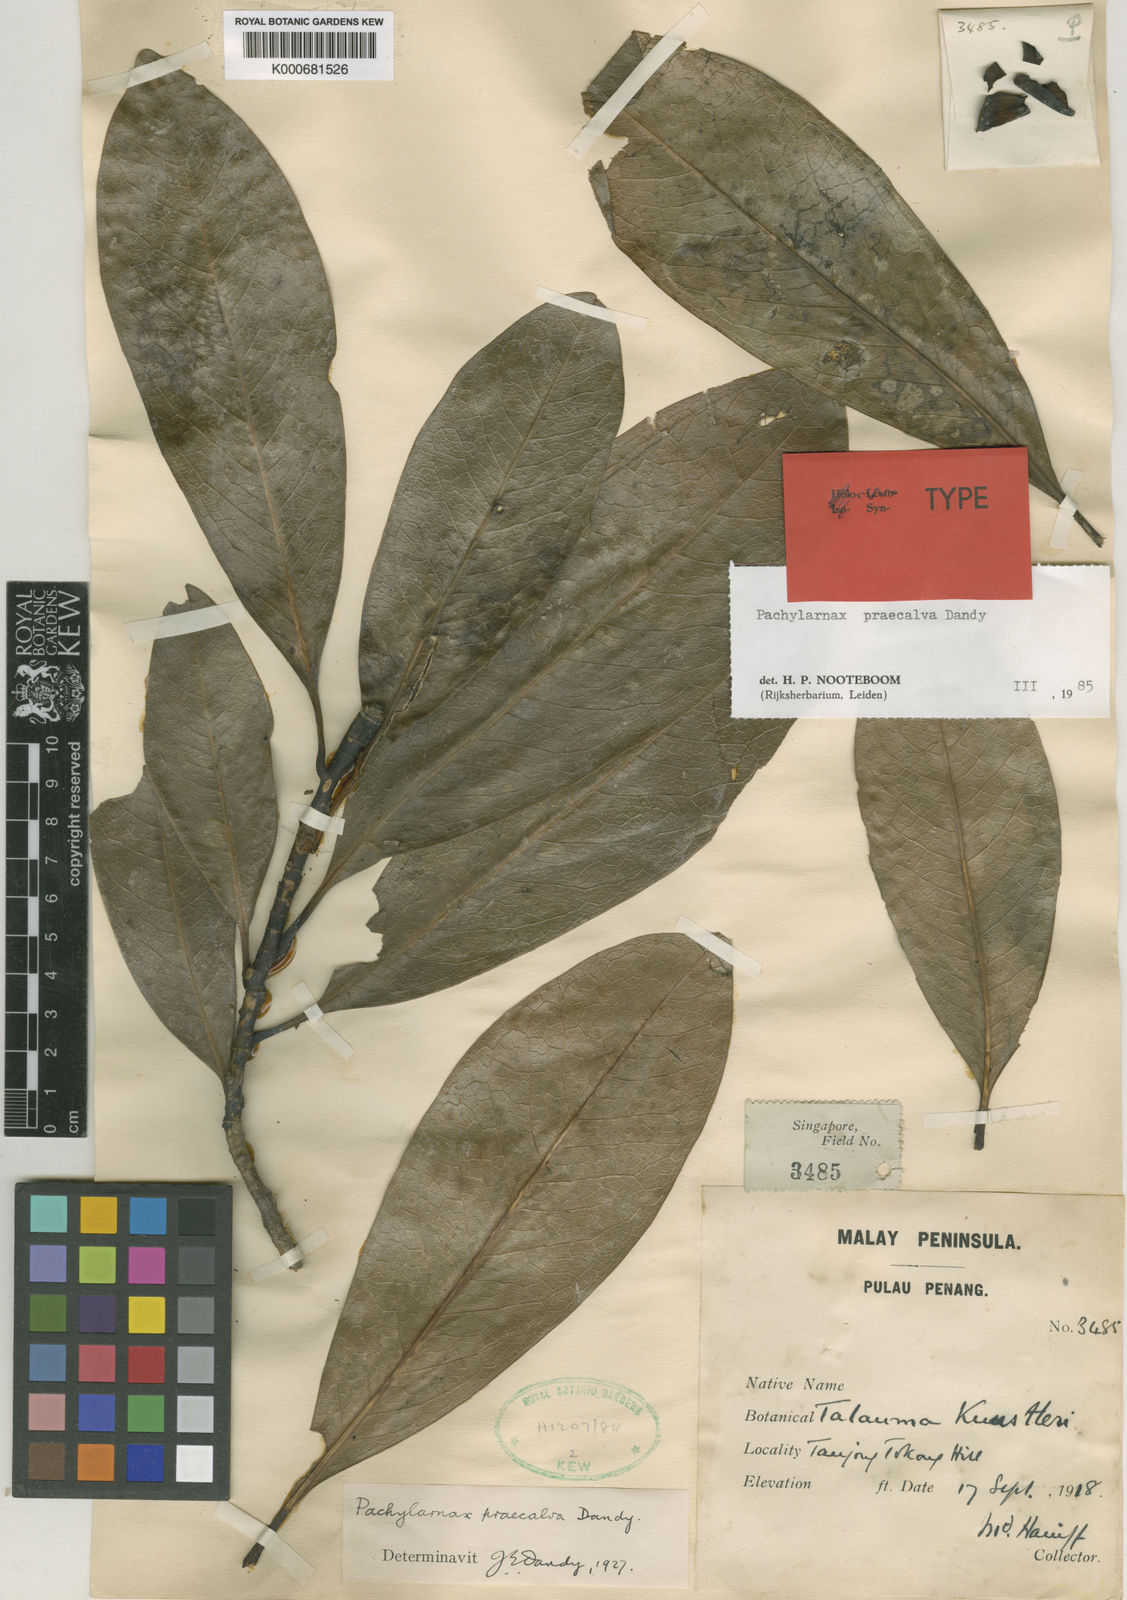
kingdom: Plantae
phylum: Tracheophyta
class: Magnoliopsida
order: Magnoliales
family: Magnoliaceae
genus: Magnolia
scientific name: Magnolia praecalva
